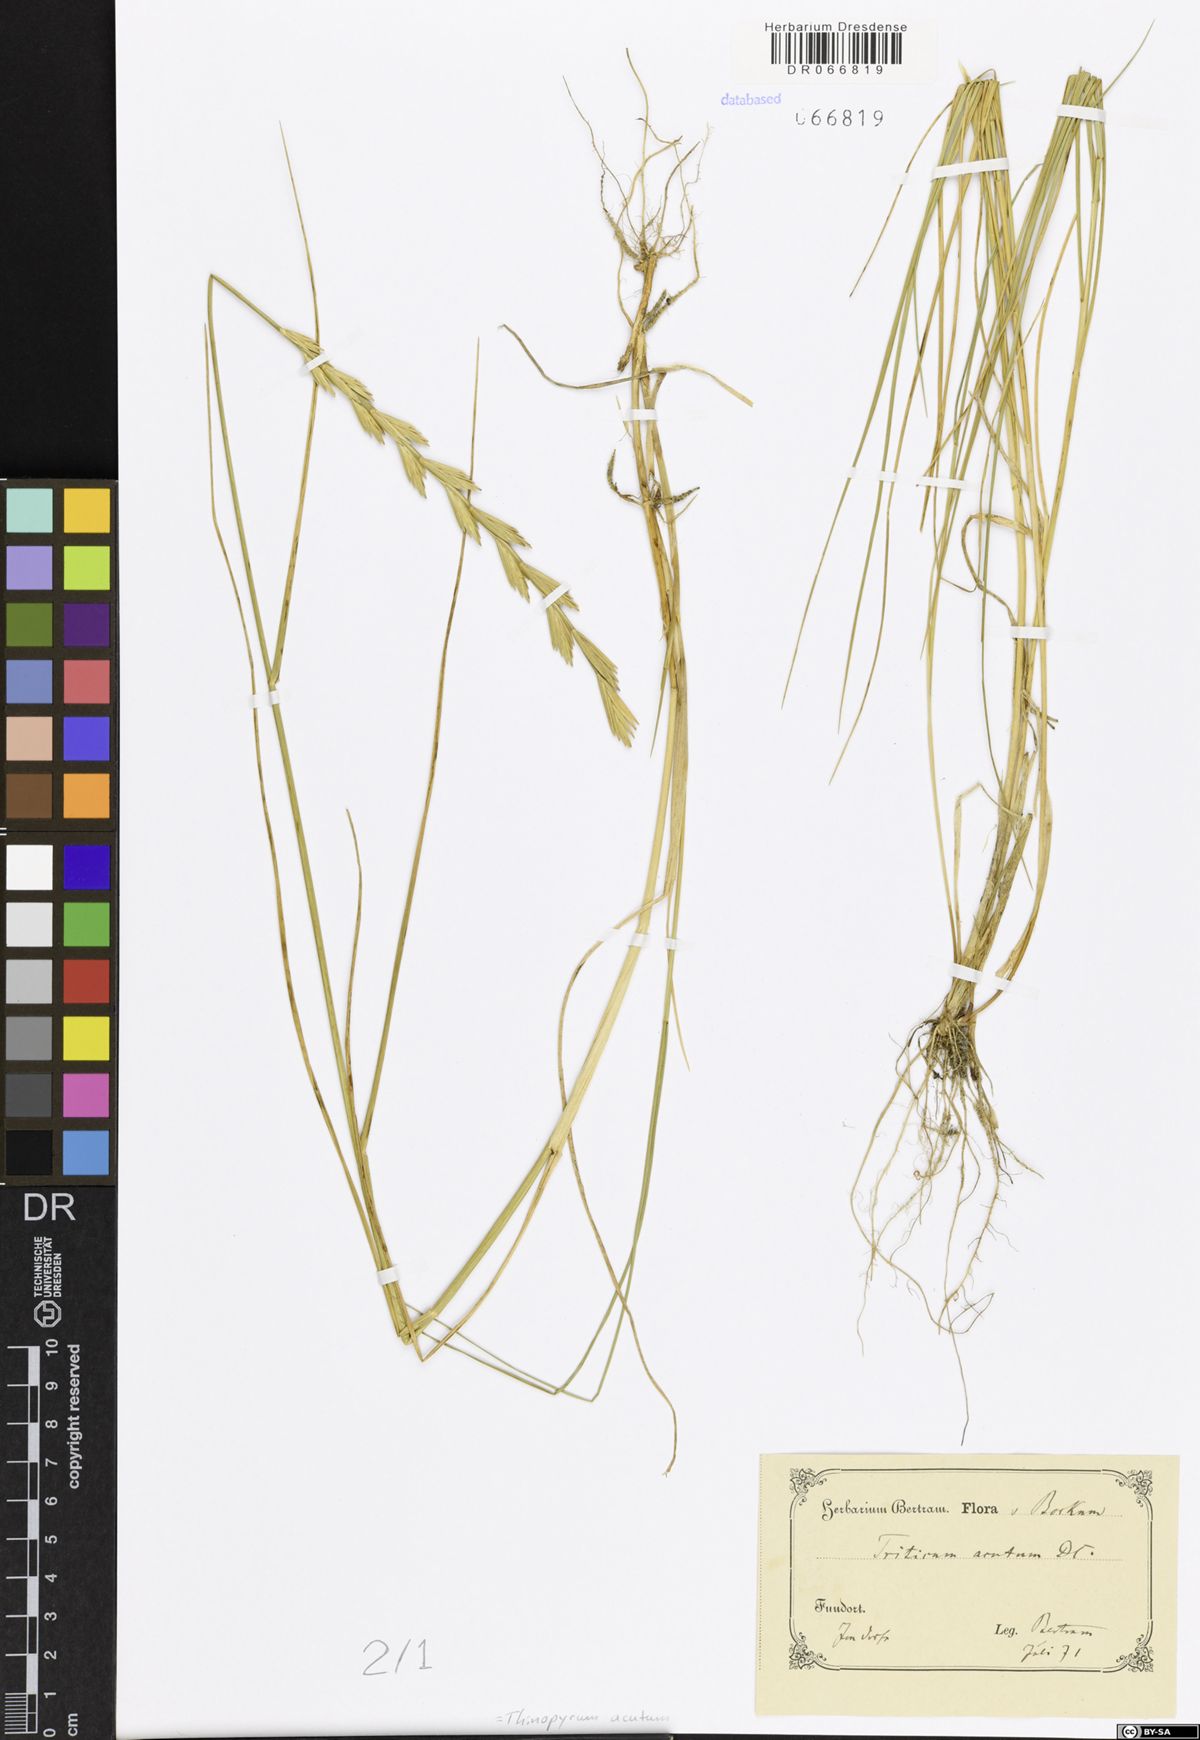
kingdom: Plantae
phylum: Tracheophyta
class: Liliopsida
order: Poales
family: Poaceae
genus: Thinopyrum
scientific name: Thinopyrum acutum
